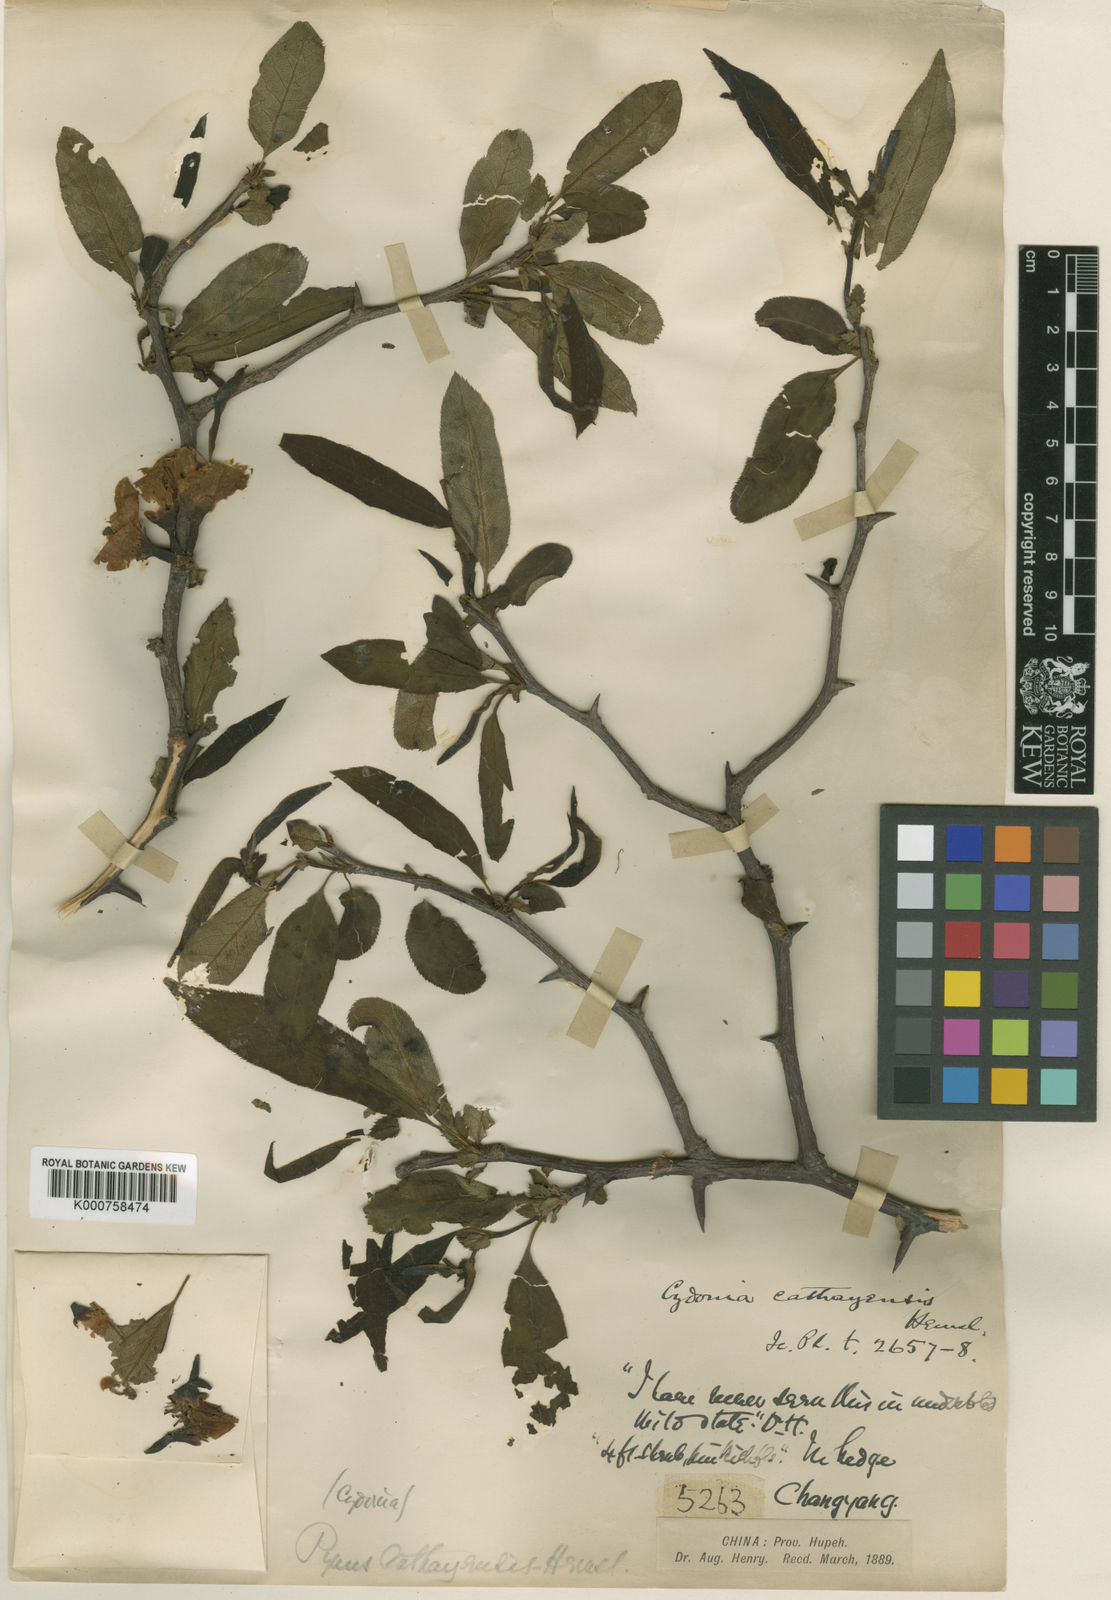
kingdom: Plantae
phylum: Tracheophyta
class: Magnoliopsida
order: Rosales
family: Rosaceae
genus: Chaenomeles
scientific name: Chaenomeles
